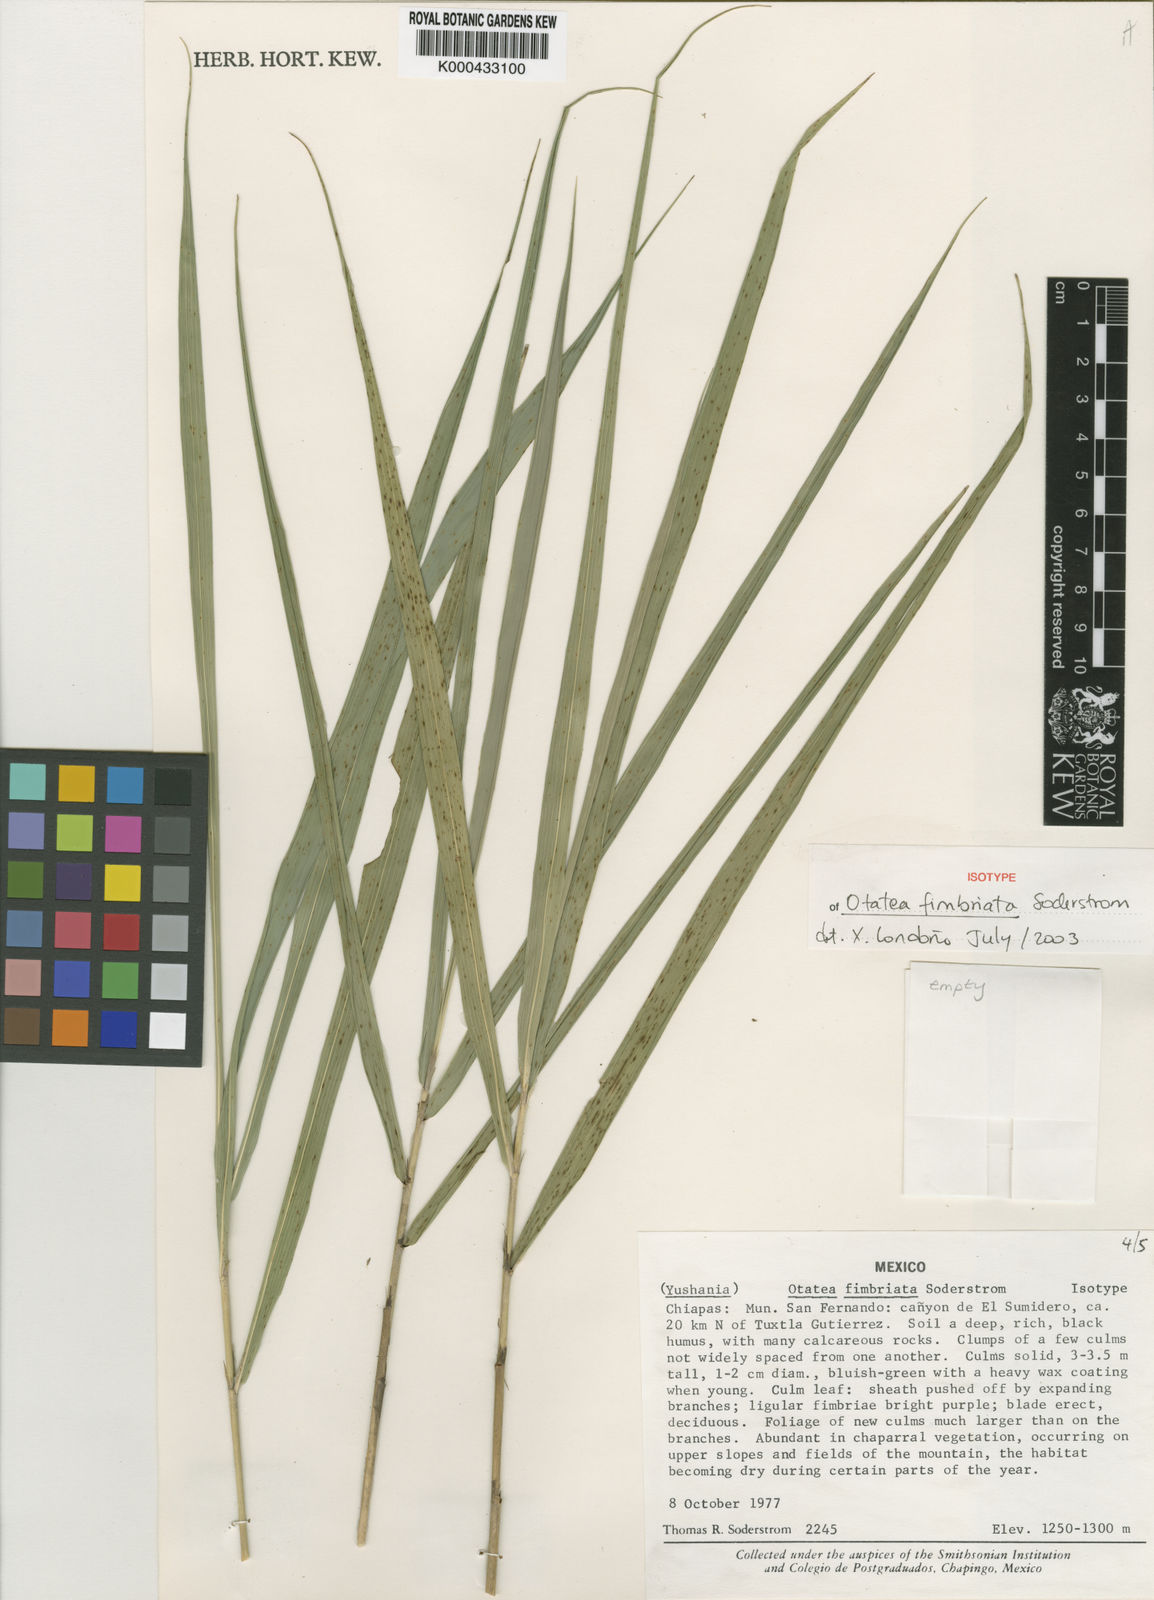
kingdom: Plantae
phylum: Tracheophyta
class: Liliopsida
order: Poales
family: Poaceae
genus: Otatea
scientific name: Otatea fimbriata
